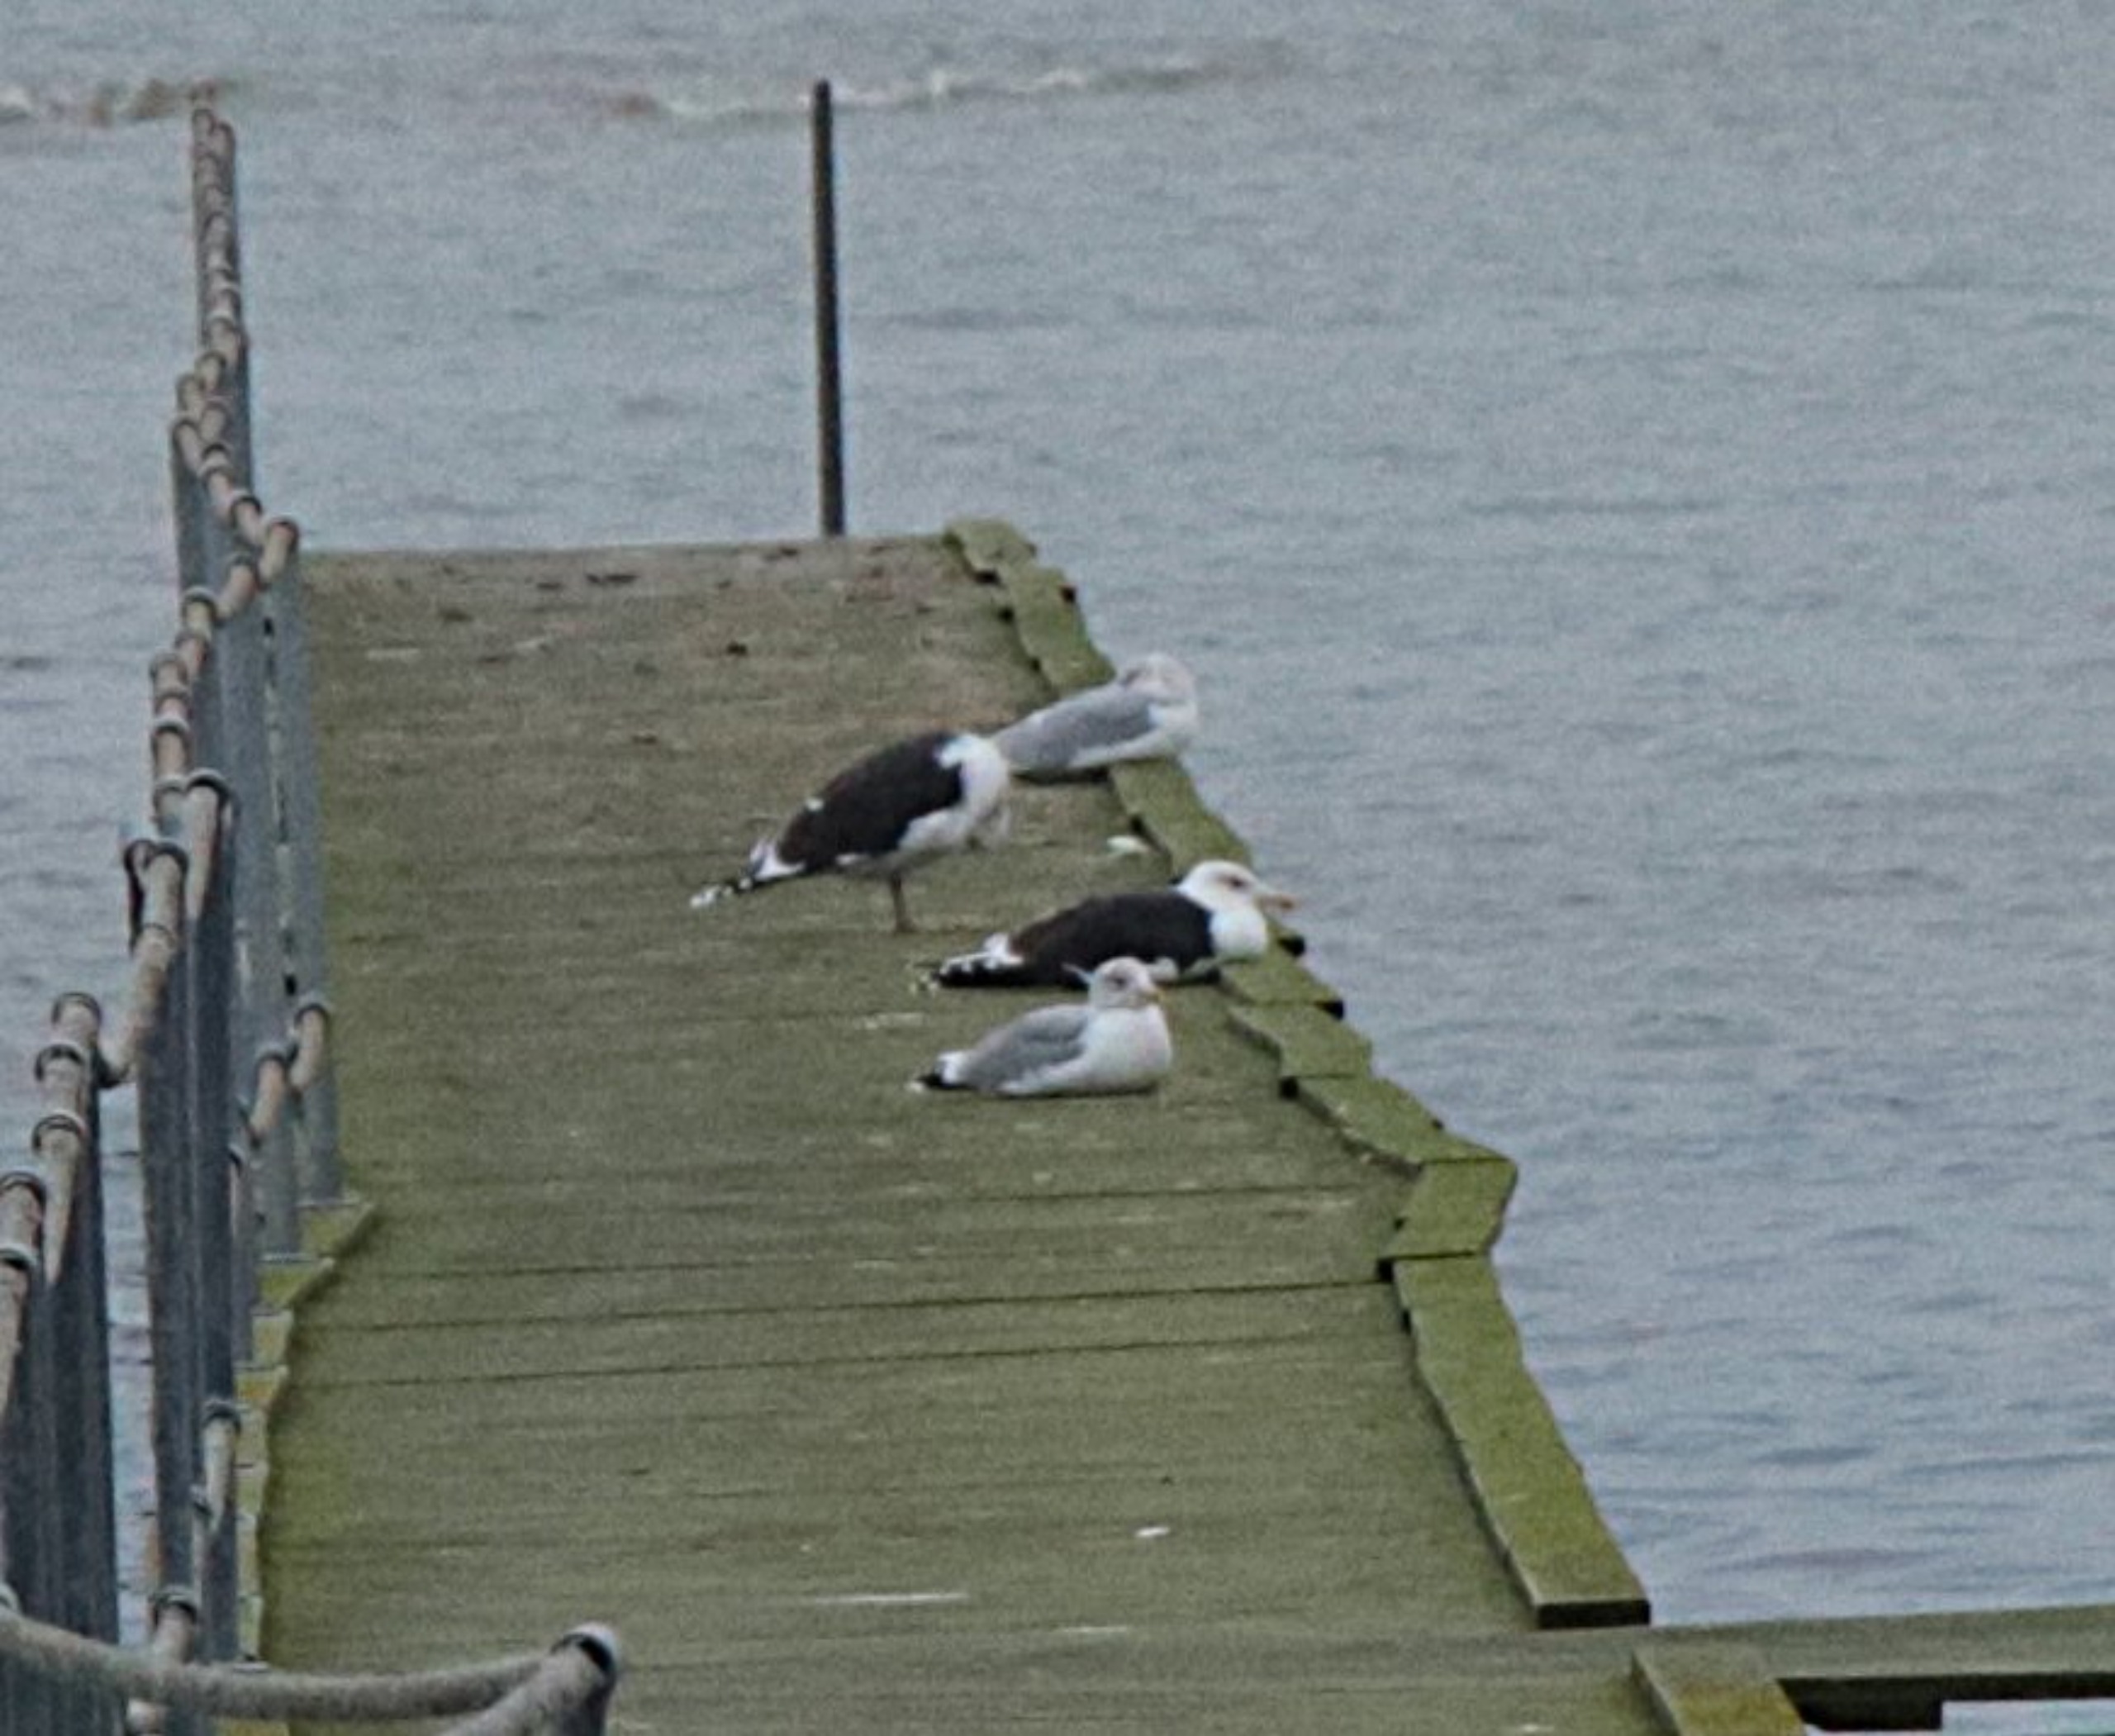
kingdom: Animalia
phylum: Chordata
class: Aves
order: Charadriiformes
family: Laridae
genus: Larus
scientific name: Larus marinus
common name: Svartbag
